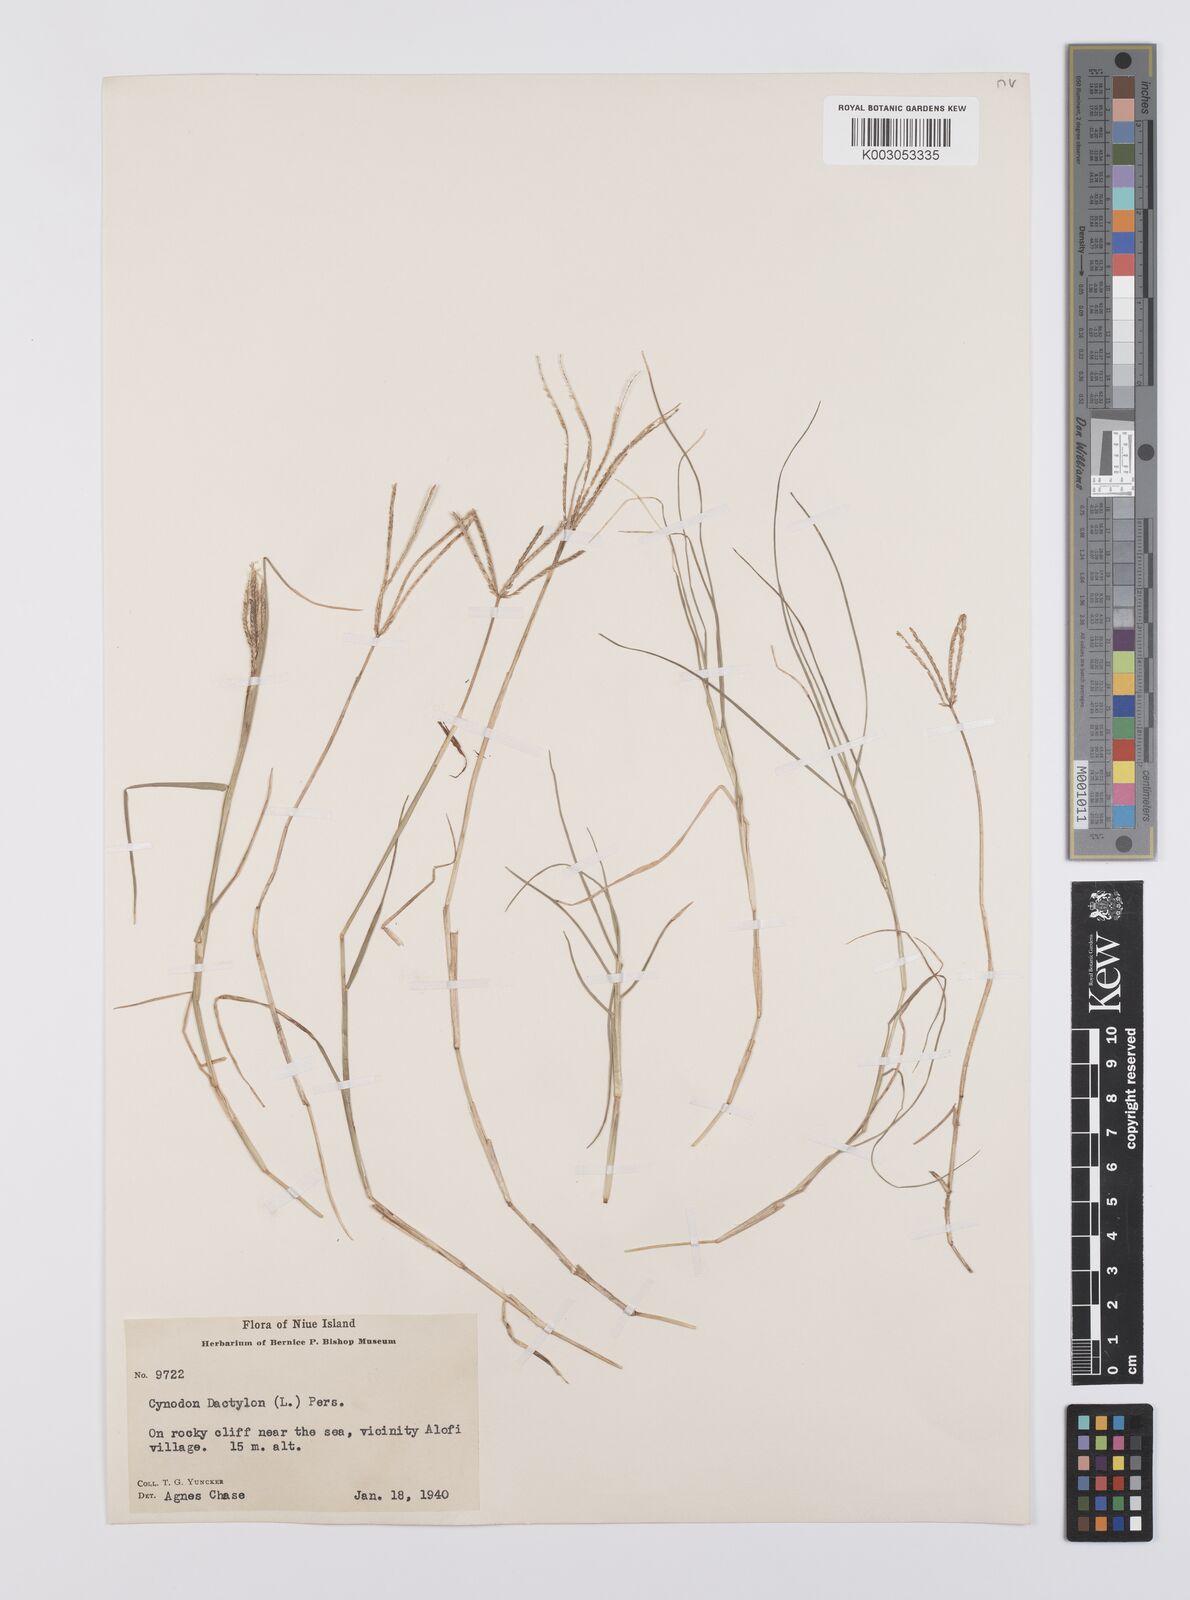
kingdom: Plantae
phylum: Tracheophyta
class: Liliopsida
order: Poales
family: Poaceae
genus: Cynodon
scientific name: Cynodon dactylon
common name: Bermuda grass
